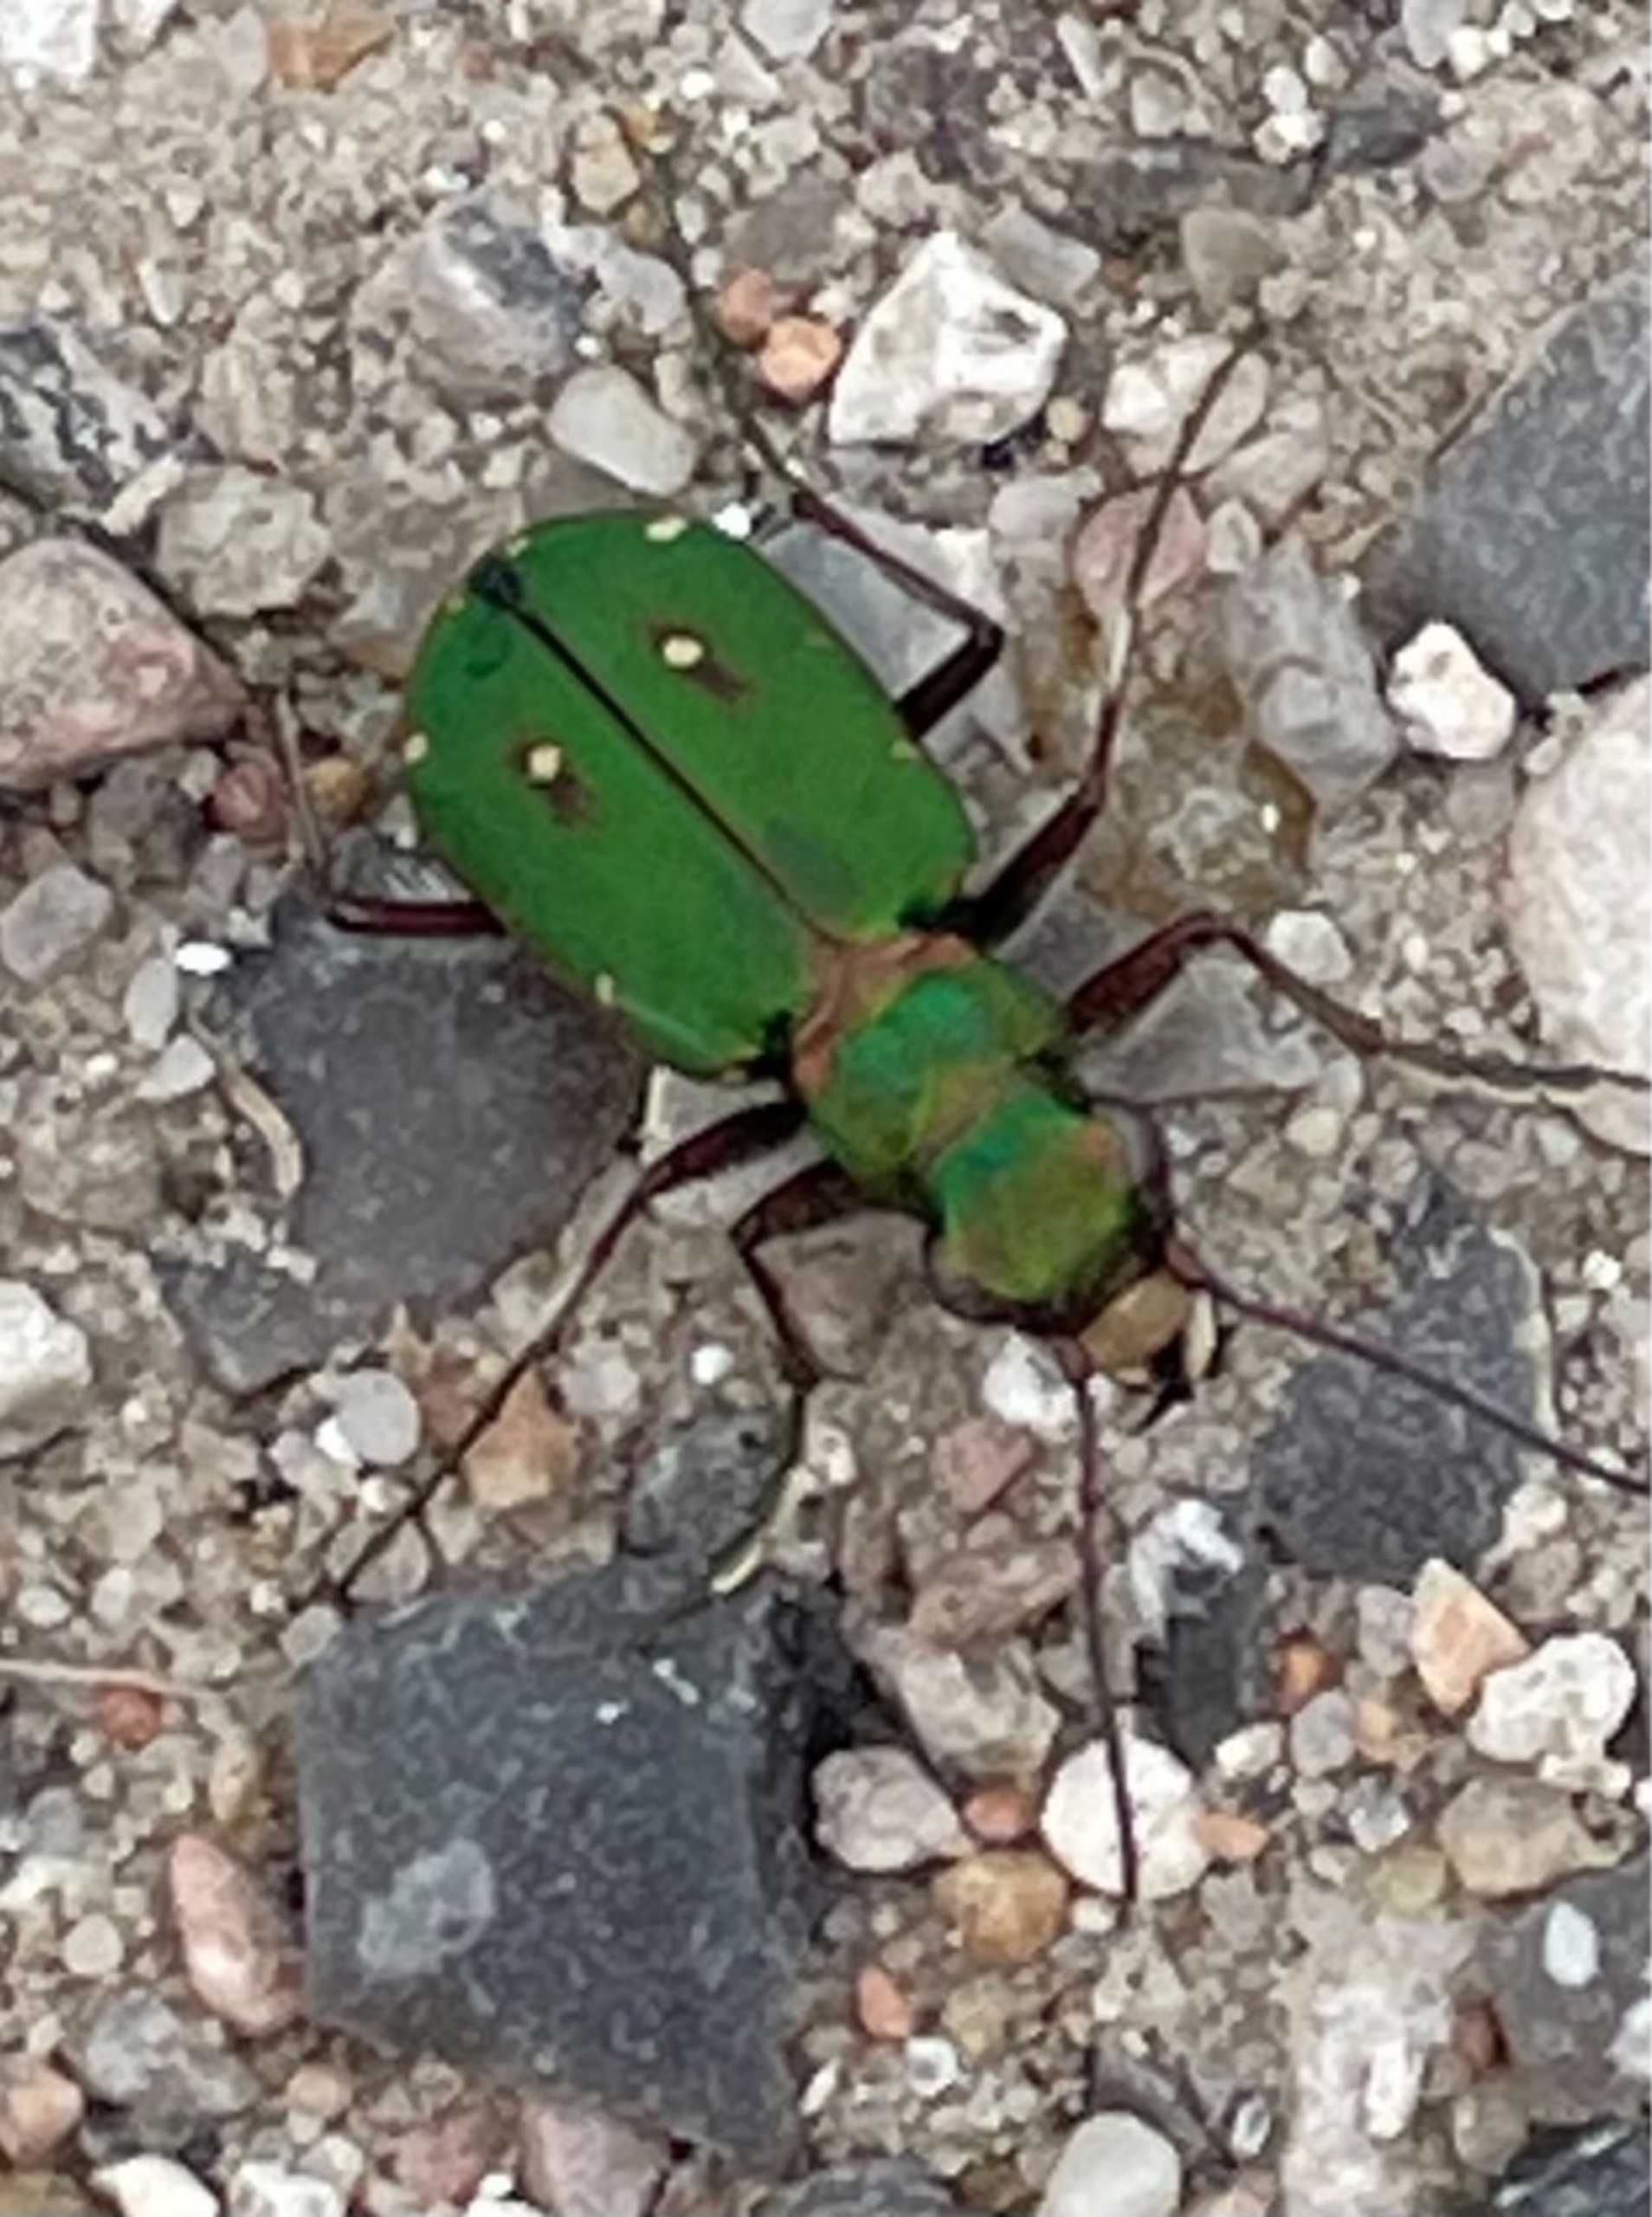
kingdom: Animalia
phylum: Arthropoda
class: Insecta
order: Coleoptera
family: Carabidae
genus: Cicindela
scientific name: Cicindela campestris
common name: Grøn sandspringer
